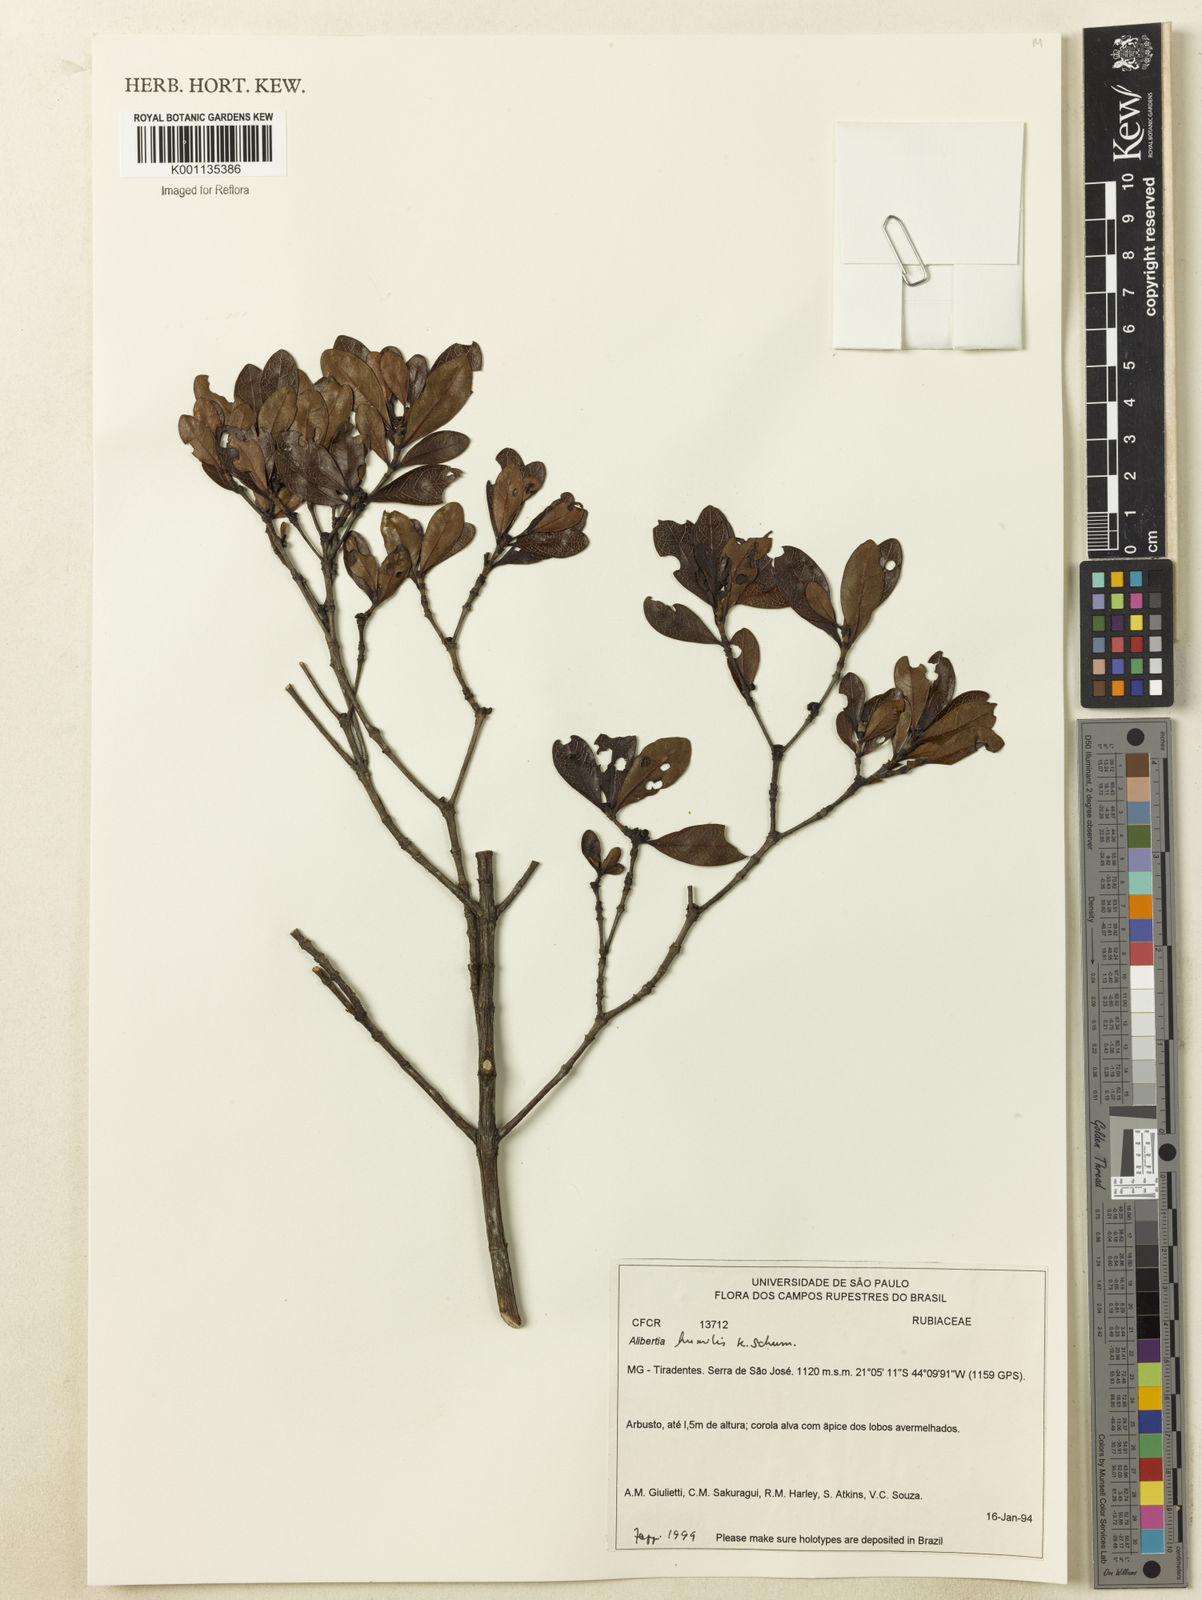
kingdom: Plantae
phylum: Tracheophyta
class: Magnoliopsida
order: Gentianales
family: Rubiaceae
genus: Cordiera
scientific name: Cordiera humilis
